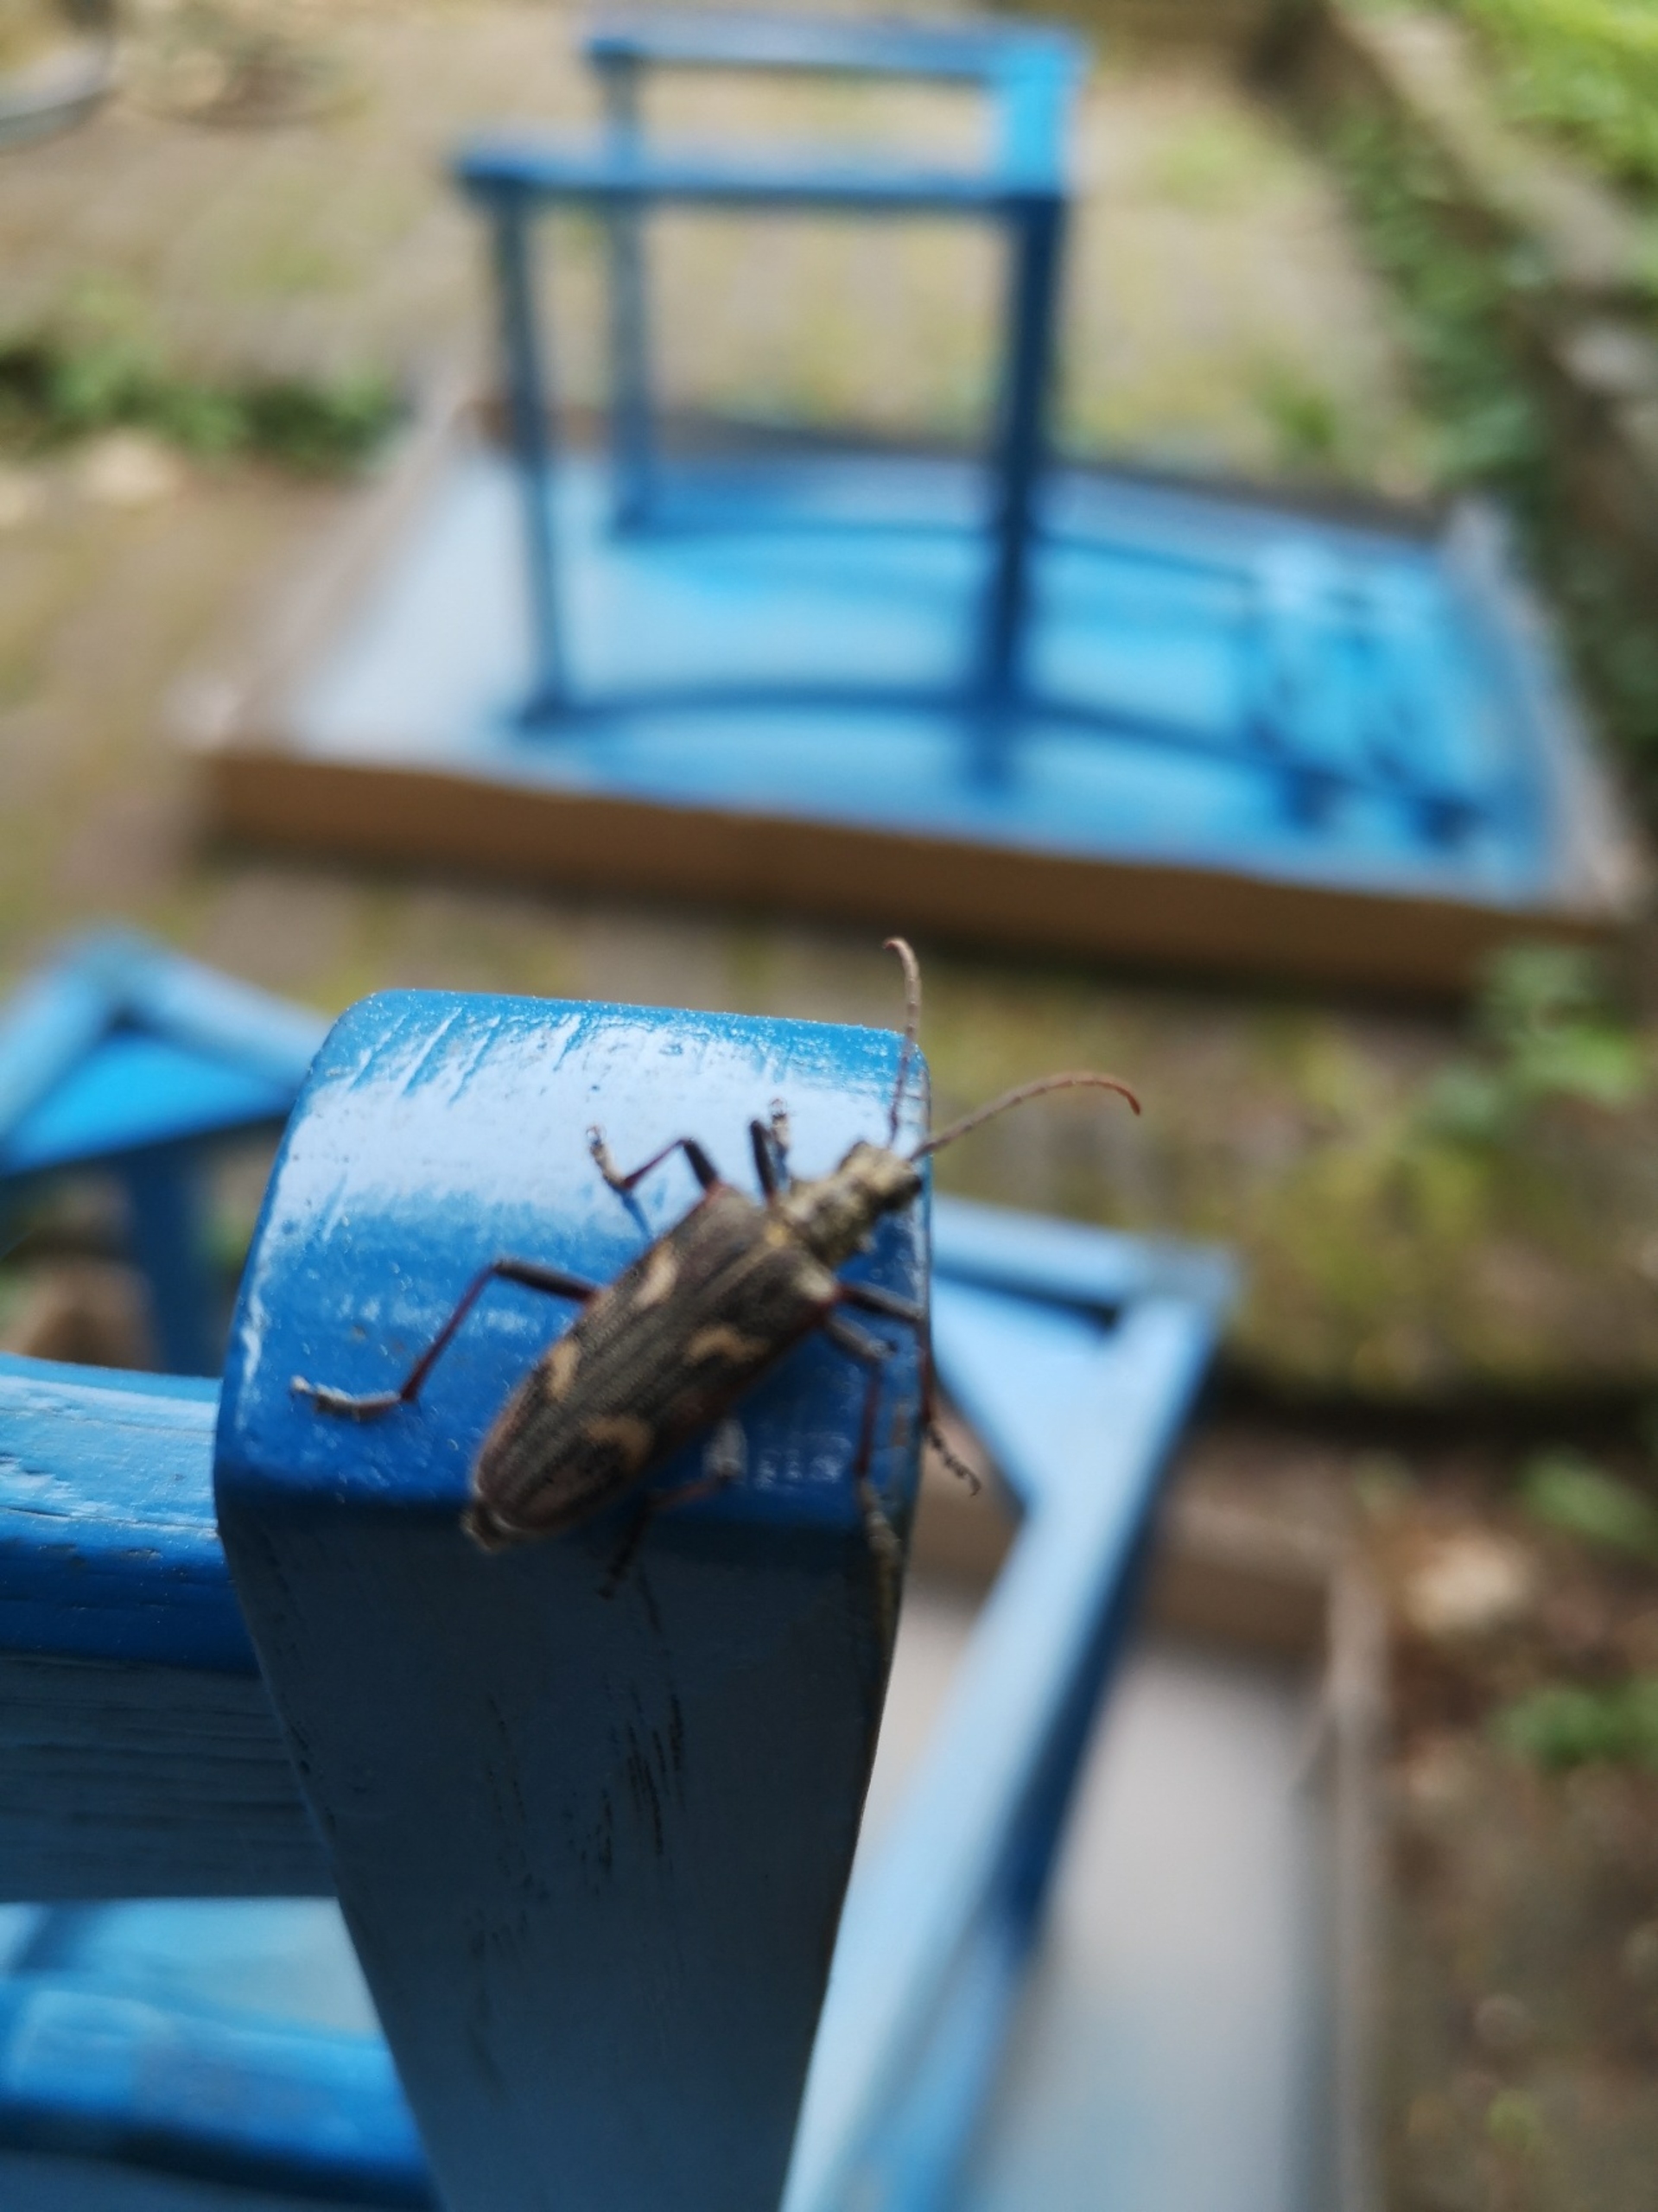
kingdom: Animalia
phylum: Arthropoda
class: Insecta
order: Coleoptera
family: Cerambycidae
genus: Rhagium
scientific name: Rhagium bifasciatum
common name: Båndet tandbuk
